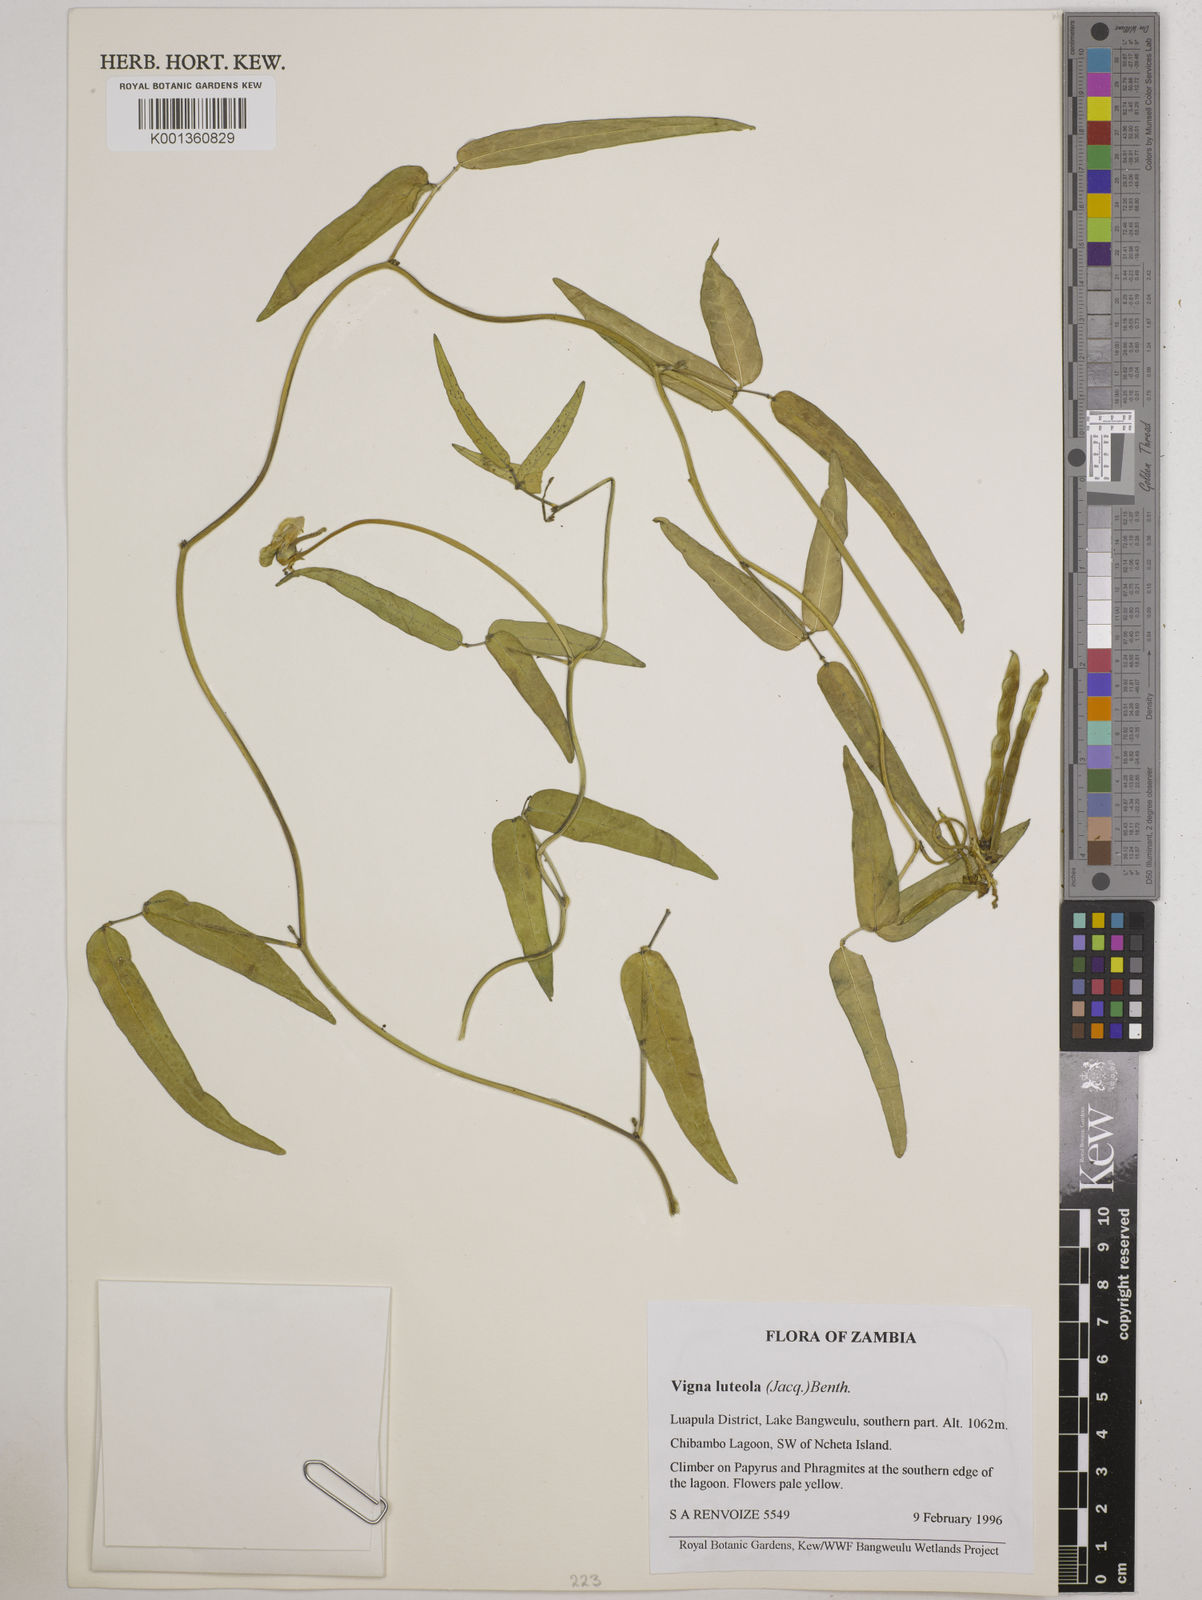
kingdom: Plantae
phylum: Tracheophyta
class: Magnoliopsida
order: Fabales
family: Fabaceae
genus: Vigna
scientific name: Vigna luteola
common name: Hairypod cowpea
